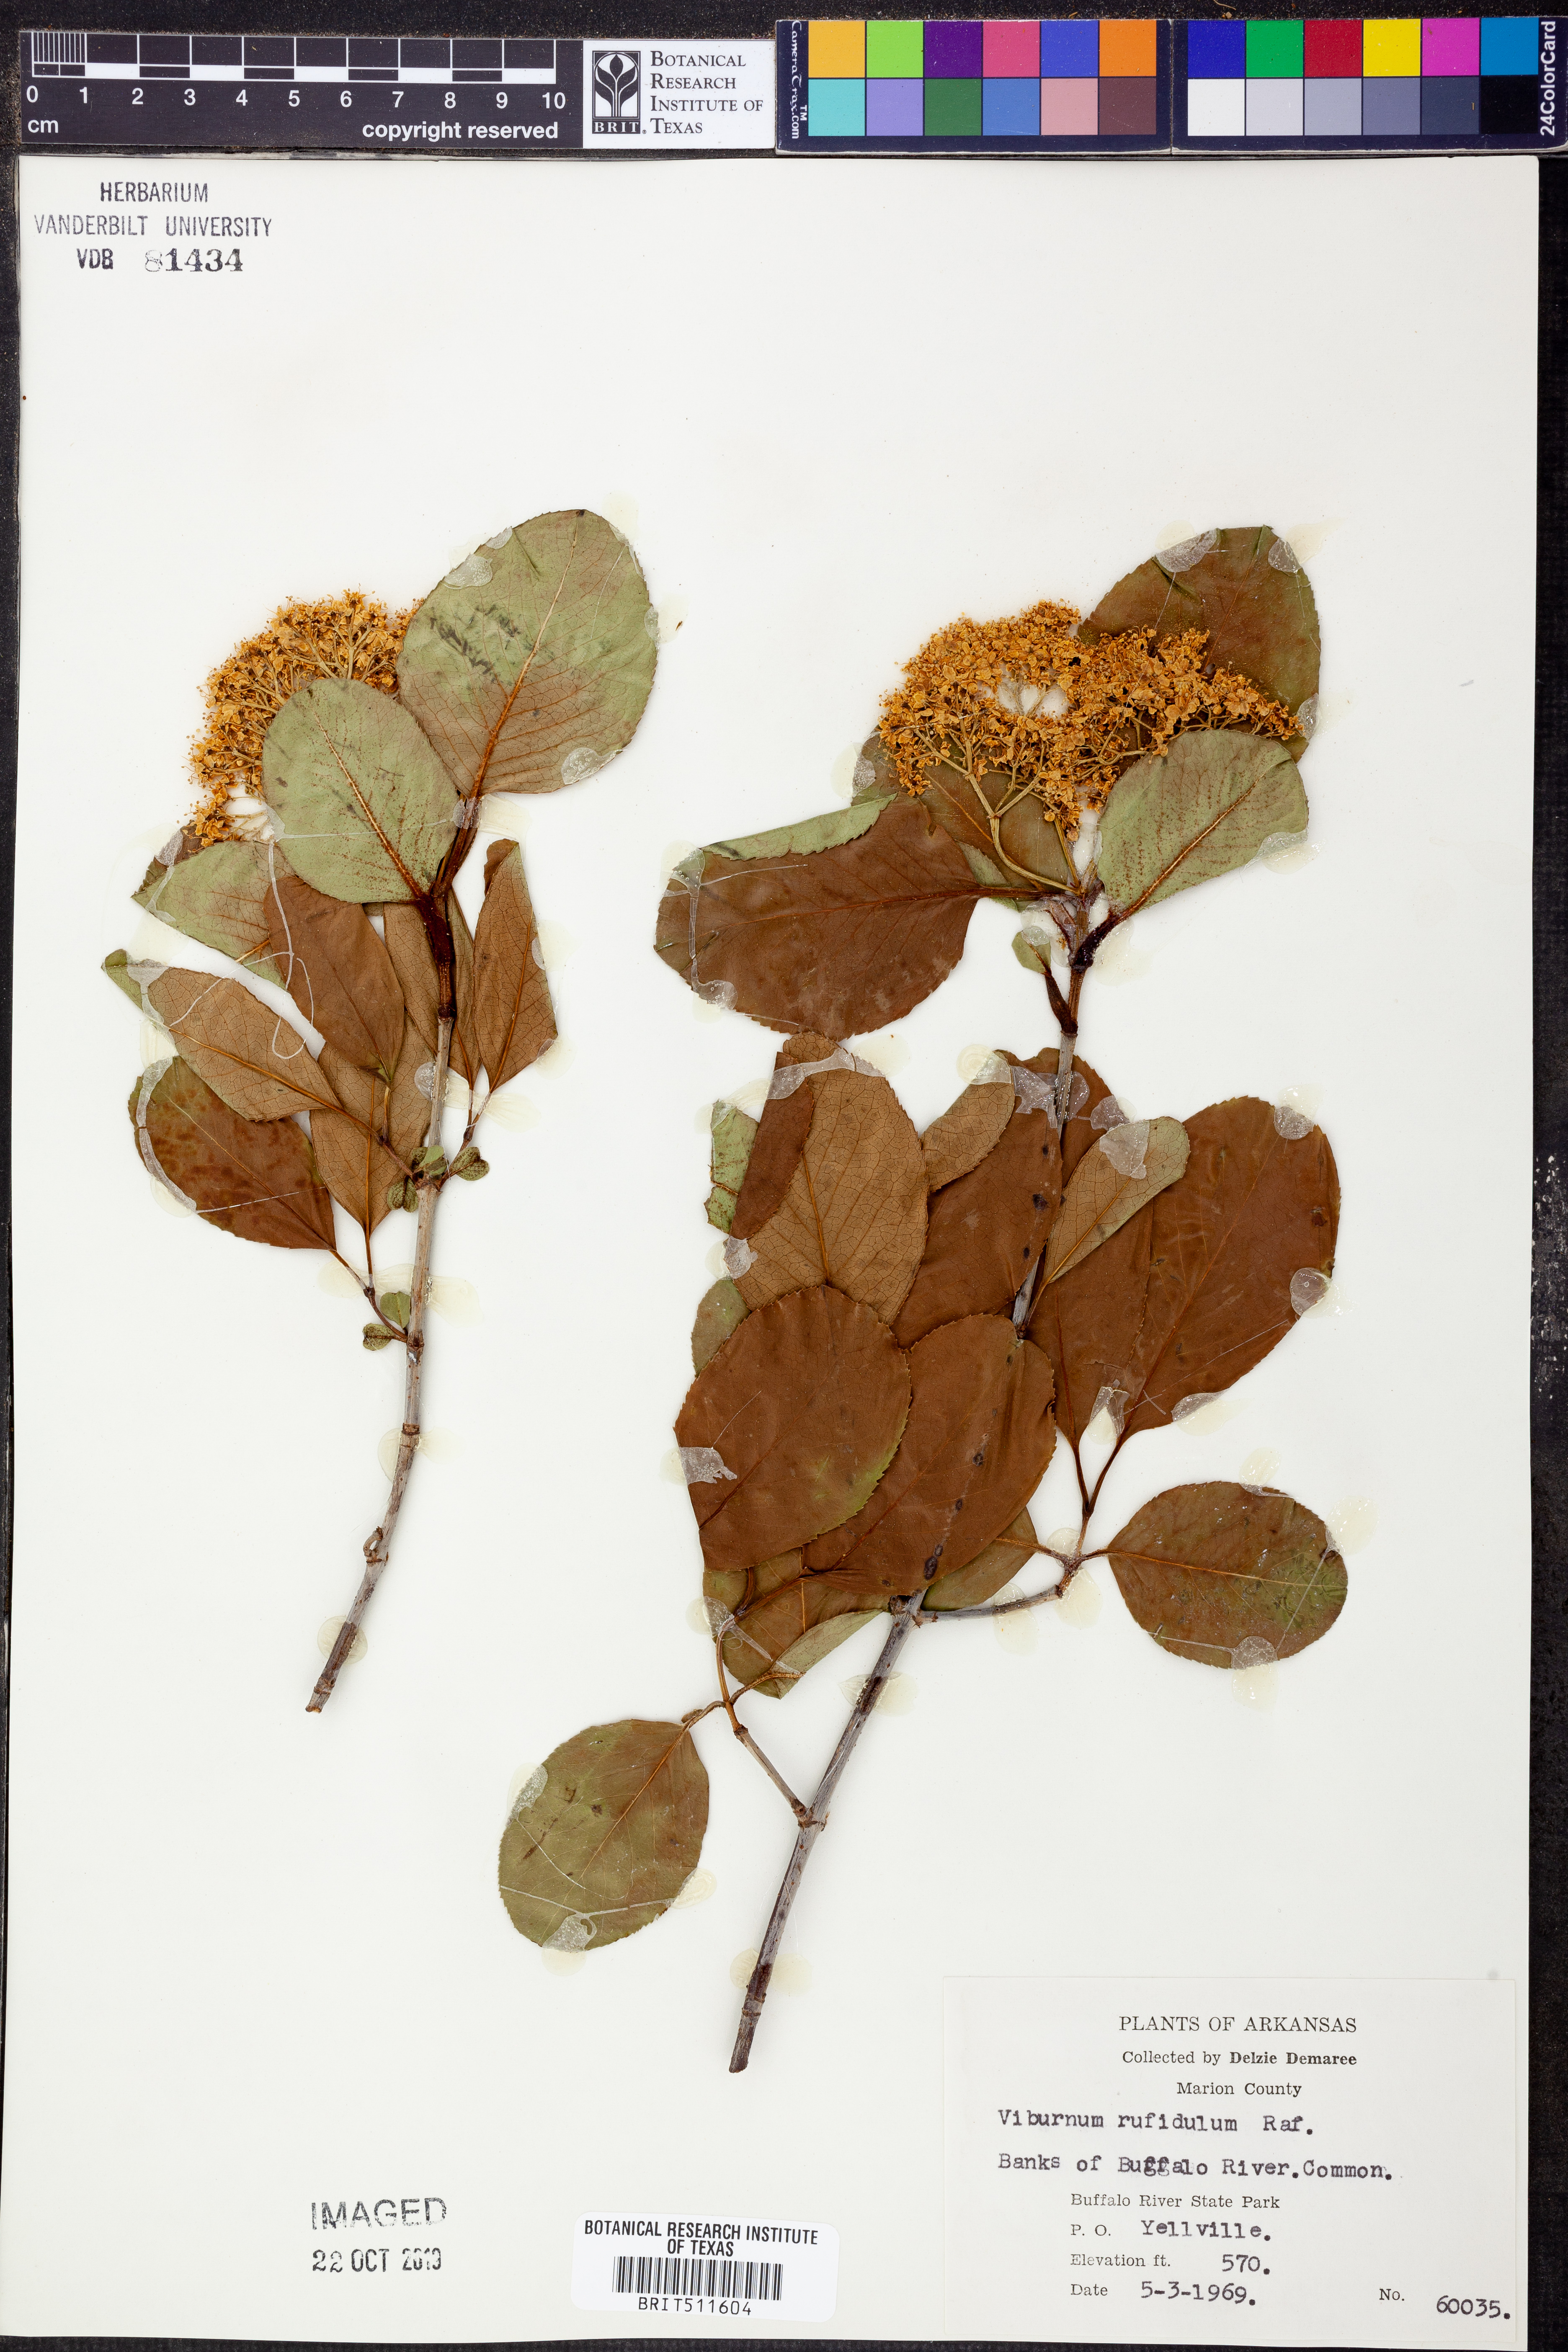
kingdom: Plantae
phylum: Tracheophyta
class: Magnoliopsida
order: Dipsacales
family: Viburnaceae
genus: Viburnum
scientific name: Viburnum rufidulum
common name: Blue haw
